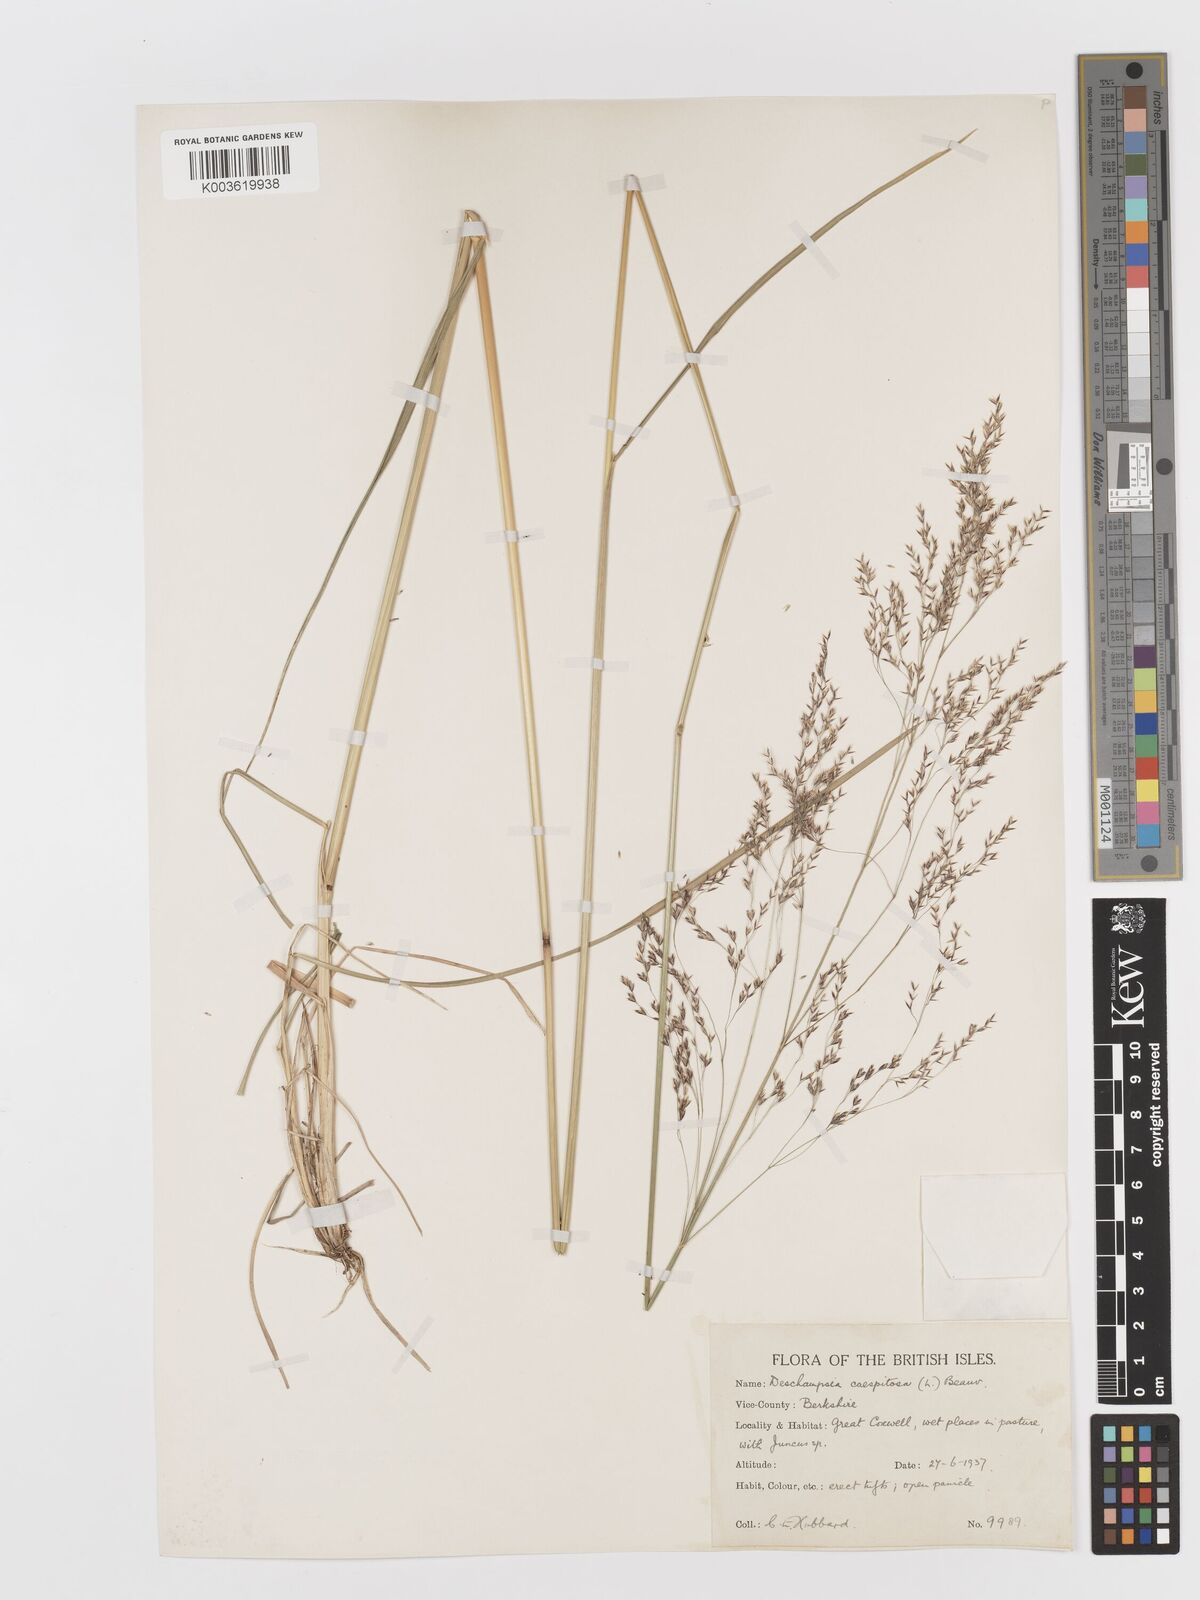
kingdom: Plantae
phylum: Tracheophyta
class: Liliopsida
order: Poales
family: Poaceae
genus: Deschampsia
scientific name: Deschampsia
